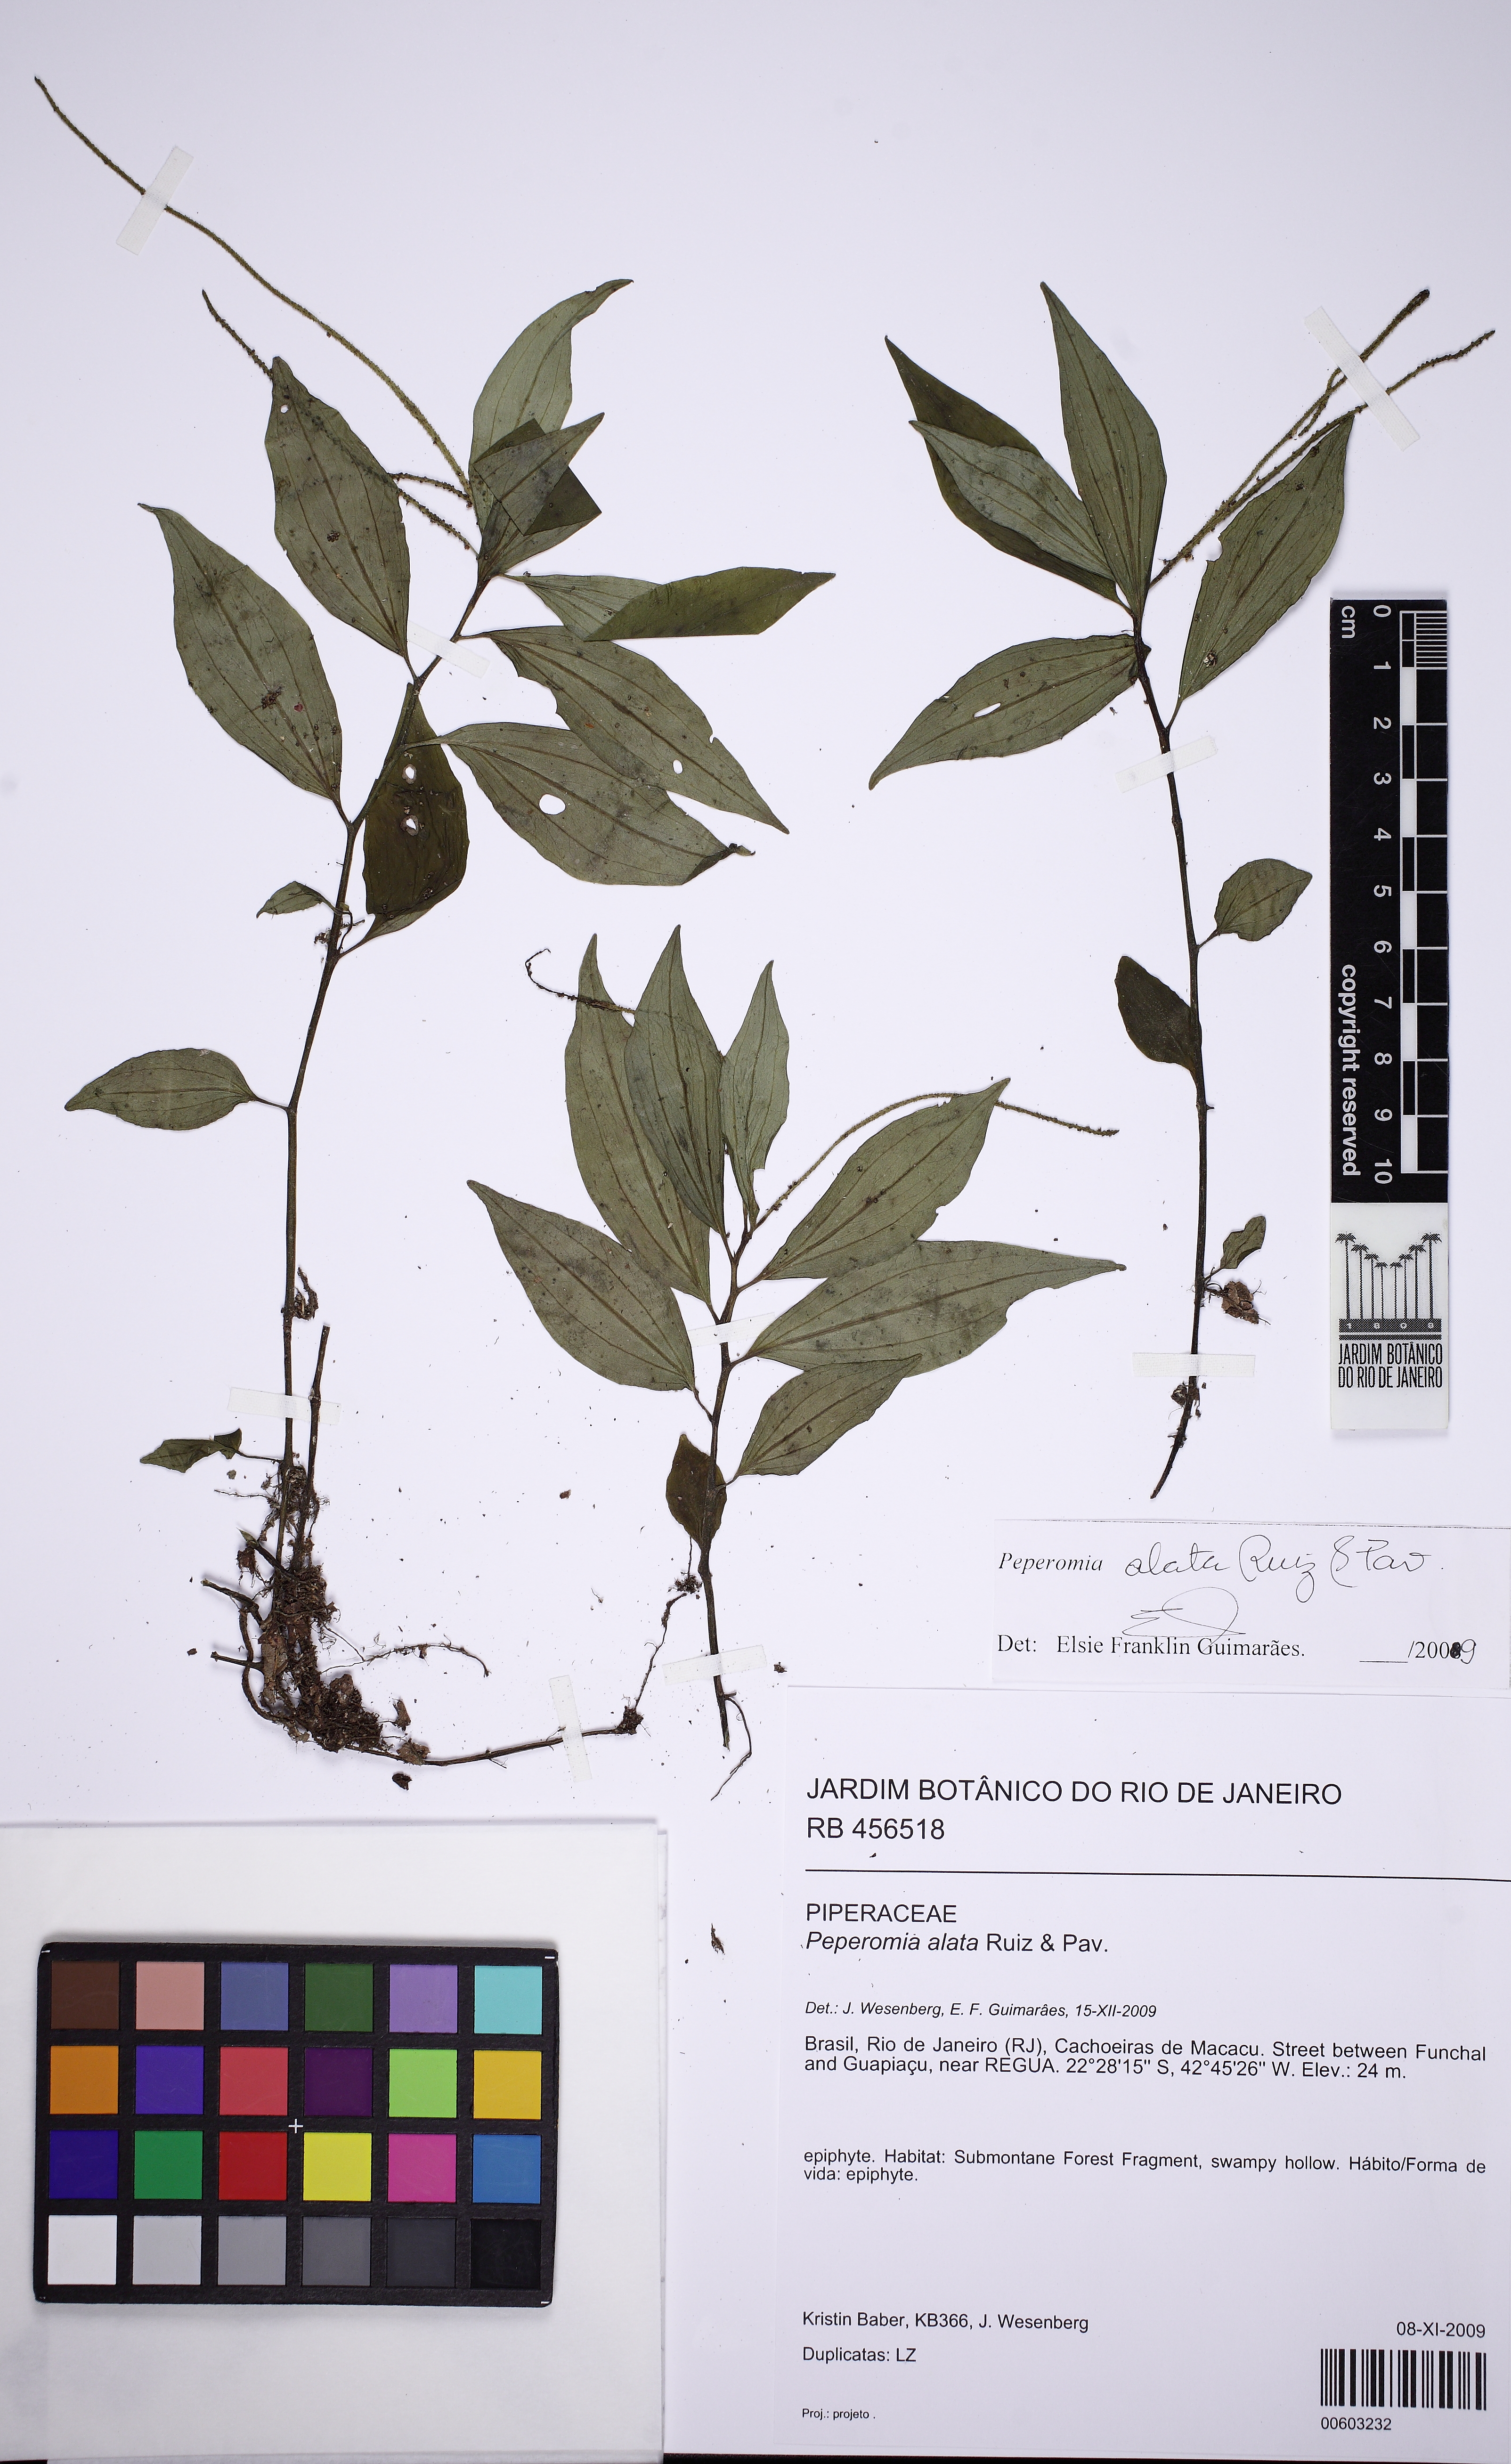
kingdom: Plantae
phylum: Tracheophyta
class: Magnoliopsida
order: Piperales
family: Piperaceae
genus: Peperomia
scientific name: Peperomia alata
